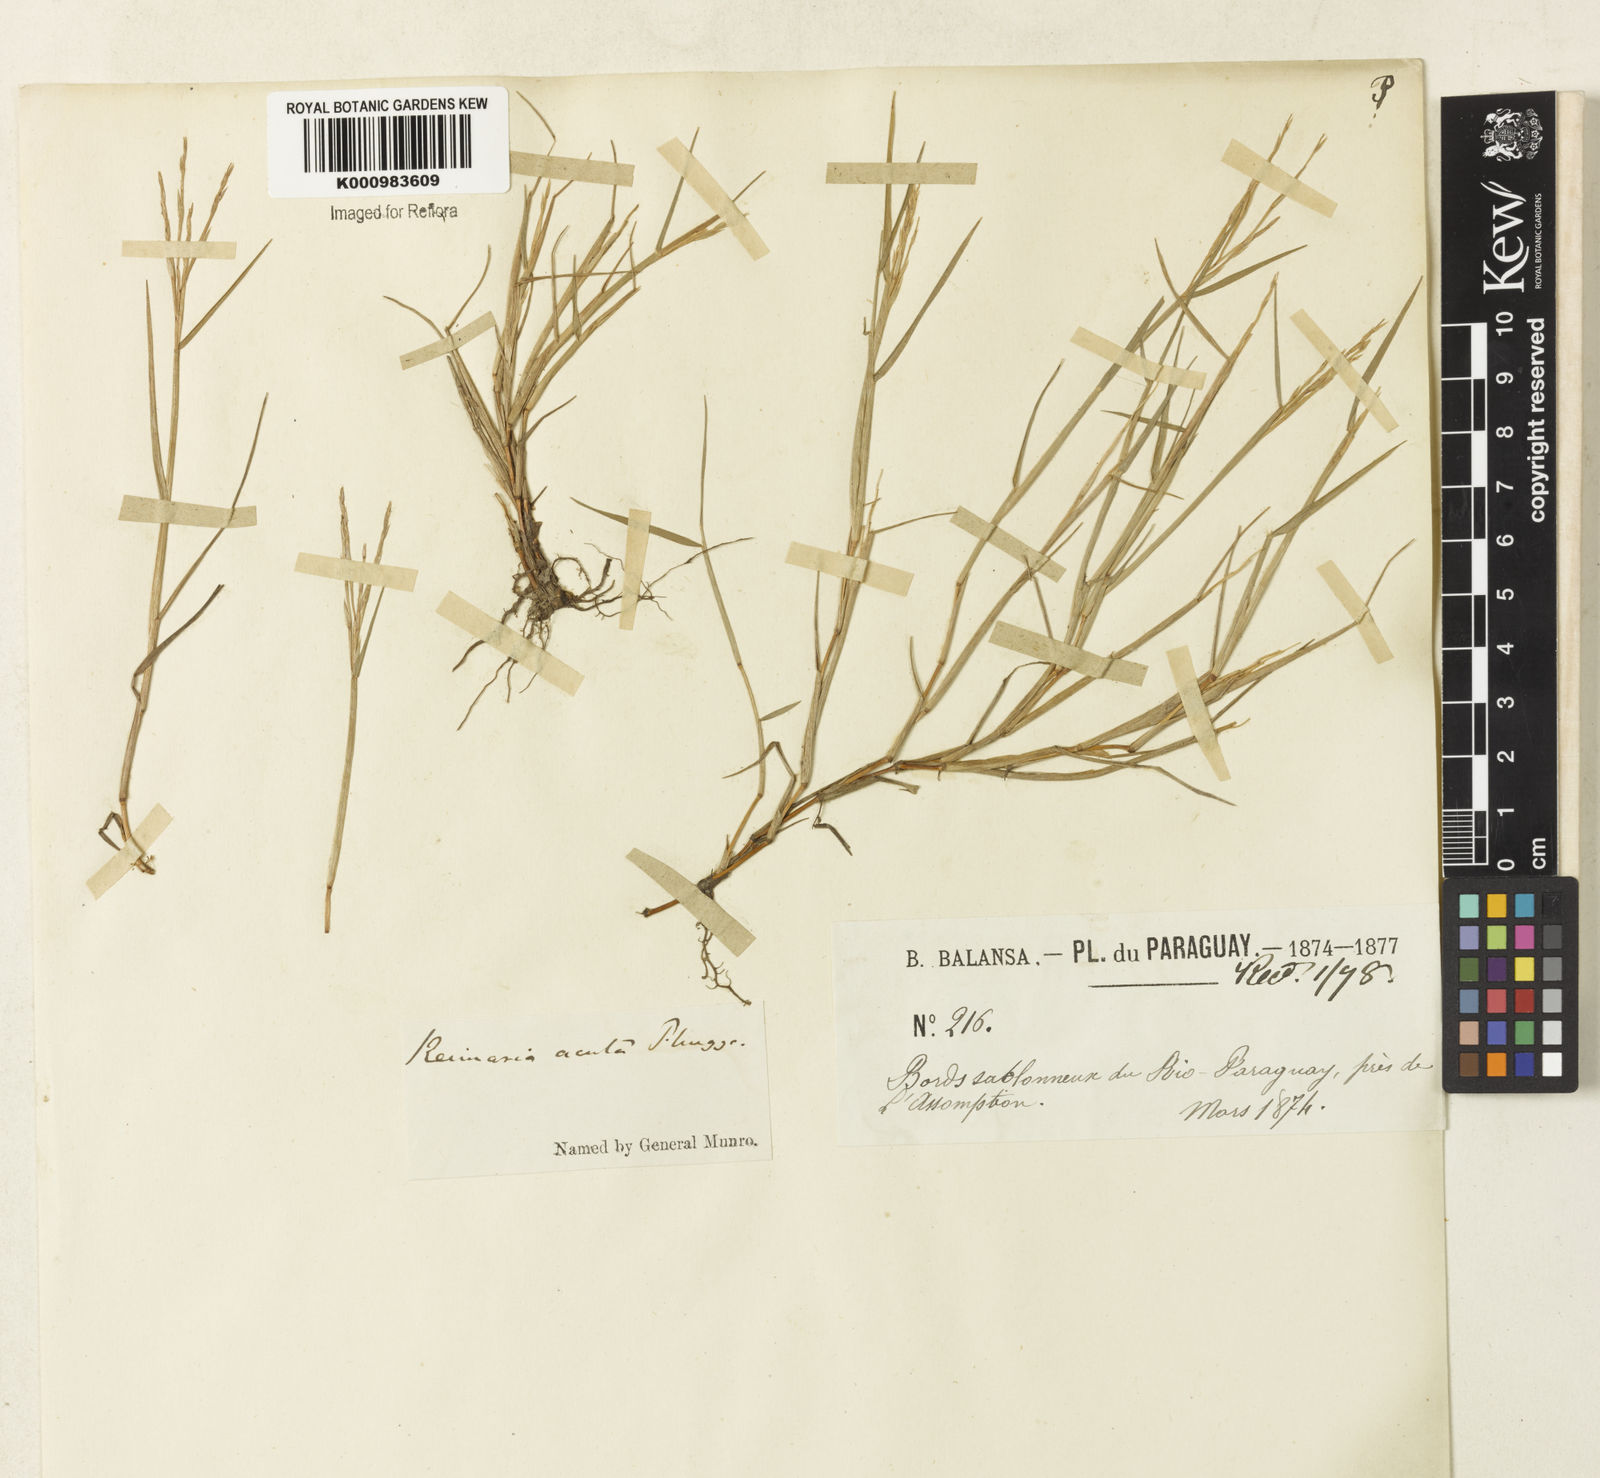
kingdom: Plantae
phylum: Tracheophyta
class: Liliopsida
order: Poales
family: Poaceae
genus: Paspalum
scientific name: Paspalum
